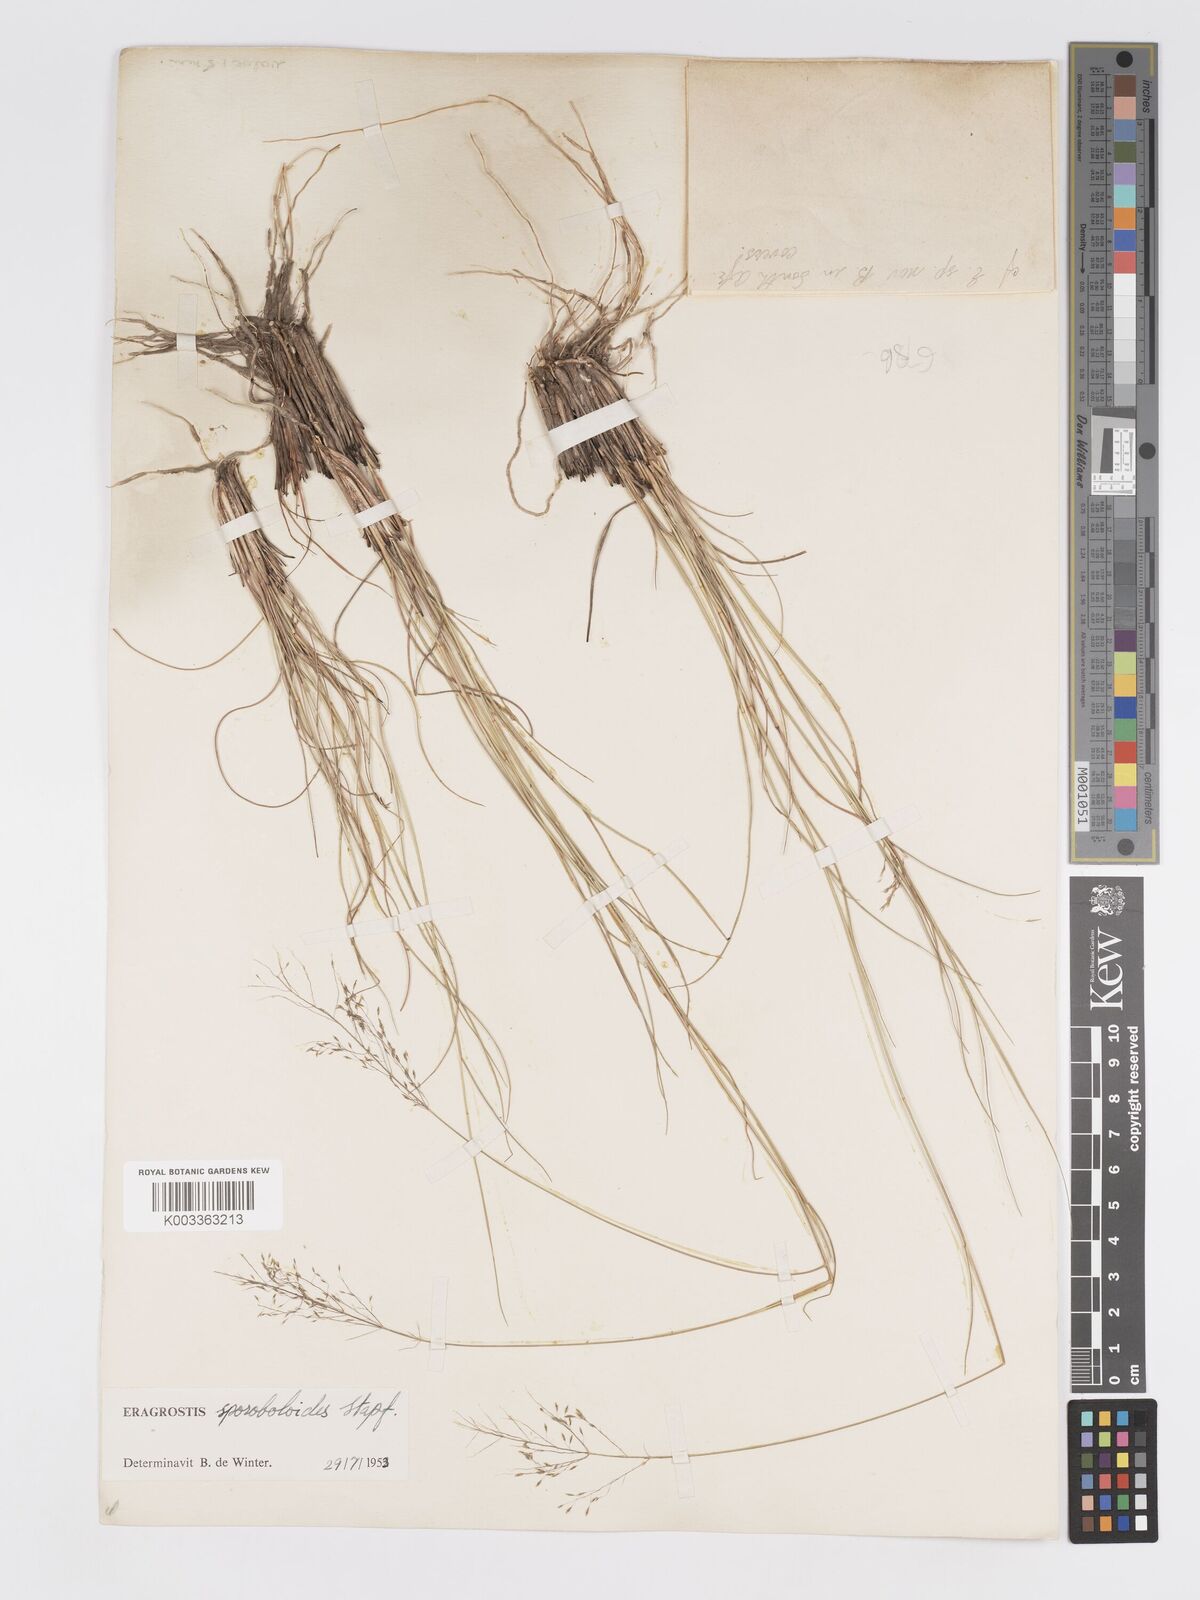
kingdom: Plantae
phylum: Tracheophyta
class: Liliopsida
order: Poales
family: Poaceae
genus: Eragrostis
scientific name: Eragrostis stapfii
